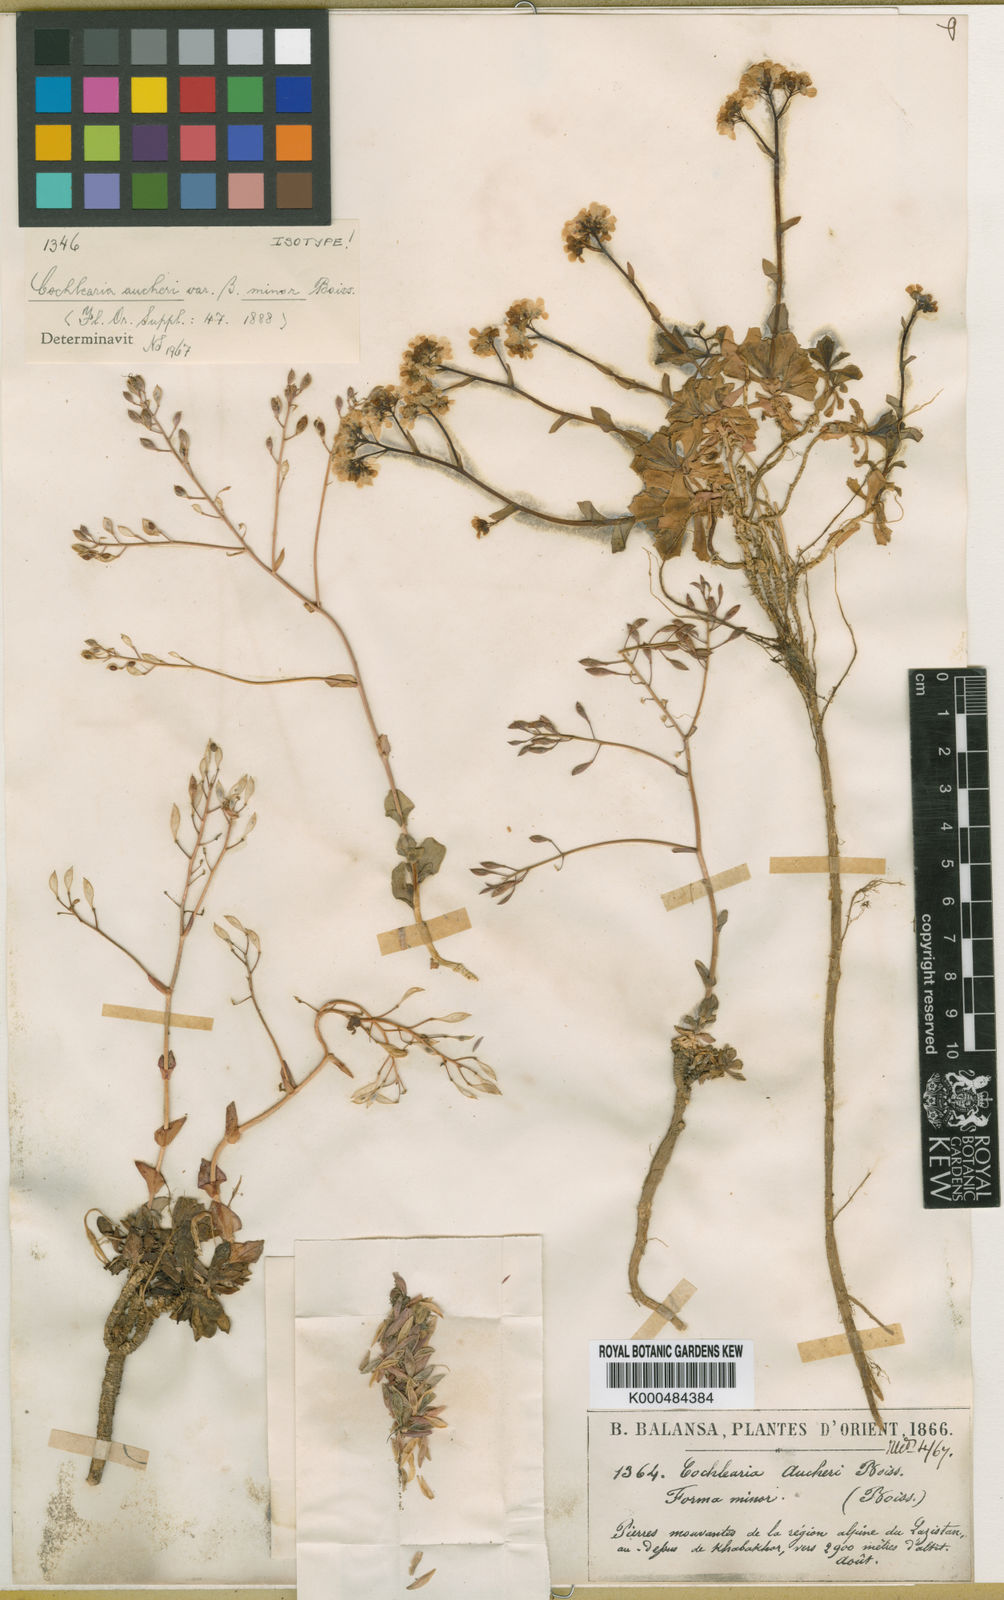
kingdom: Plantae
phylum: Tracheophyta
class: Magnoliopsida
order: Brassicales
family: Brassicaceae
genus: Pseudosempervivum
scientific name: Pseudosempervivum aucheri
